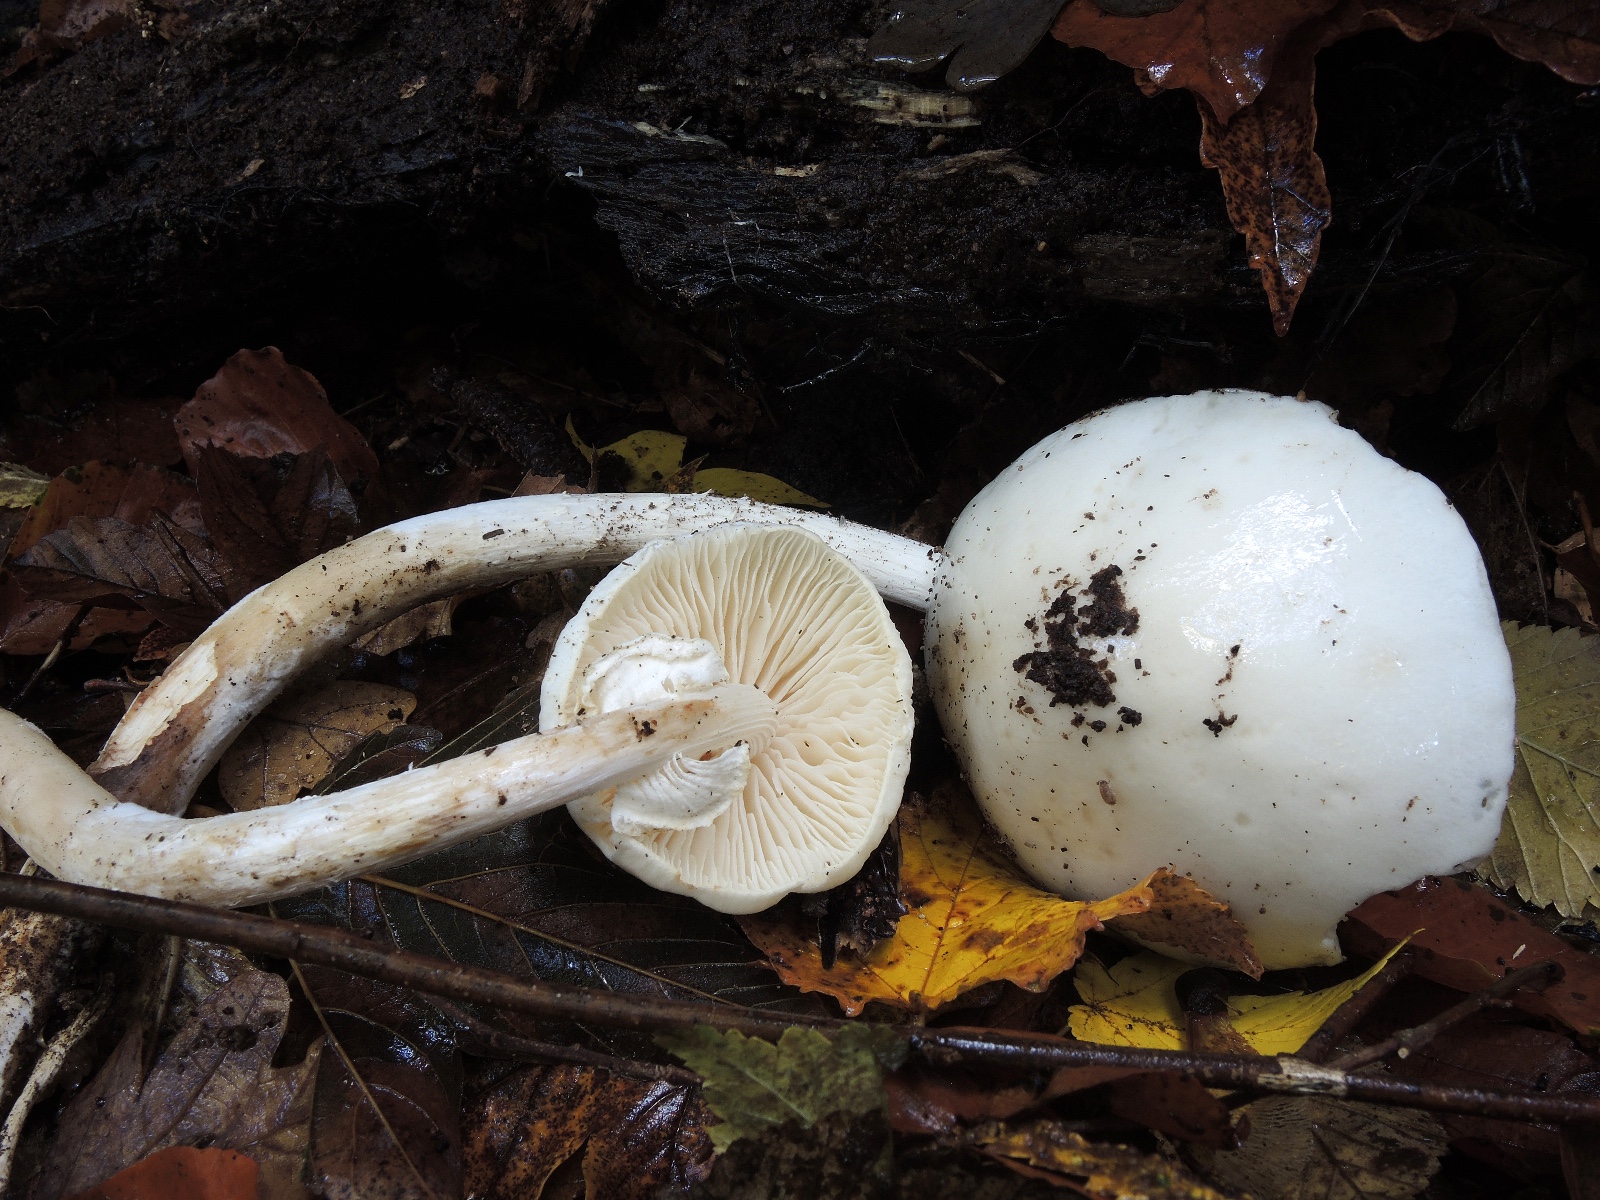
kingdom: Fungi
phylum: Basidiomycota
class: Agaricomycetes
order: Agaricales
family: Physalacriaceae
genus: Mucidula
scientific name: Mucidula mucida
